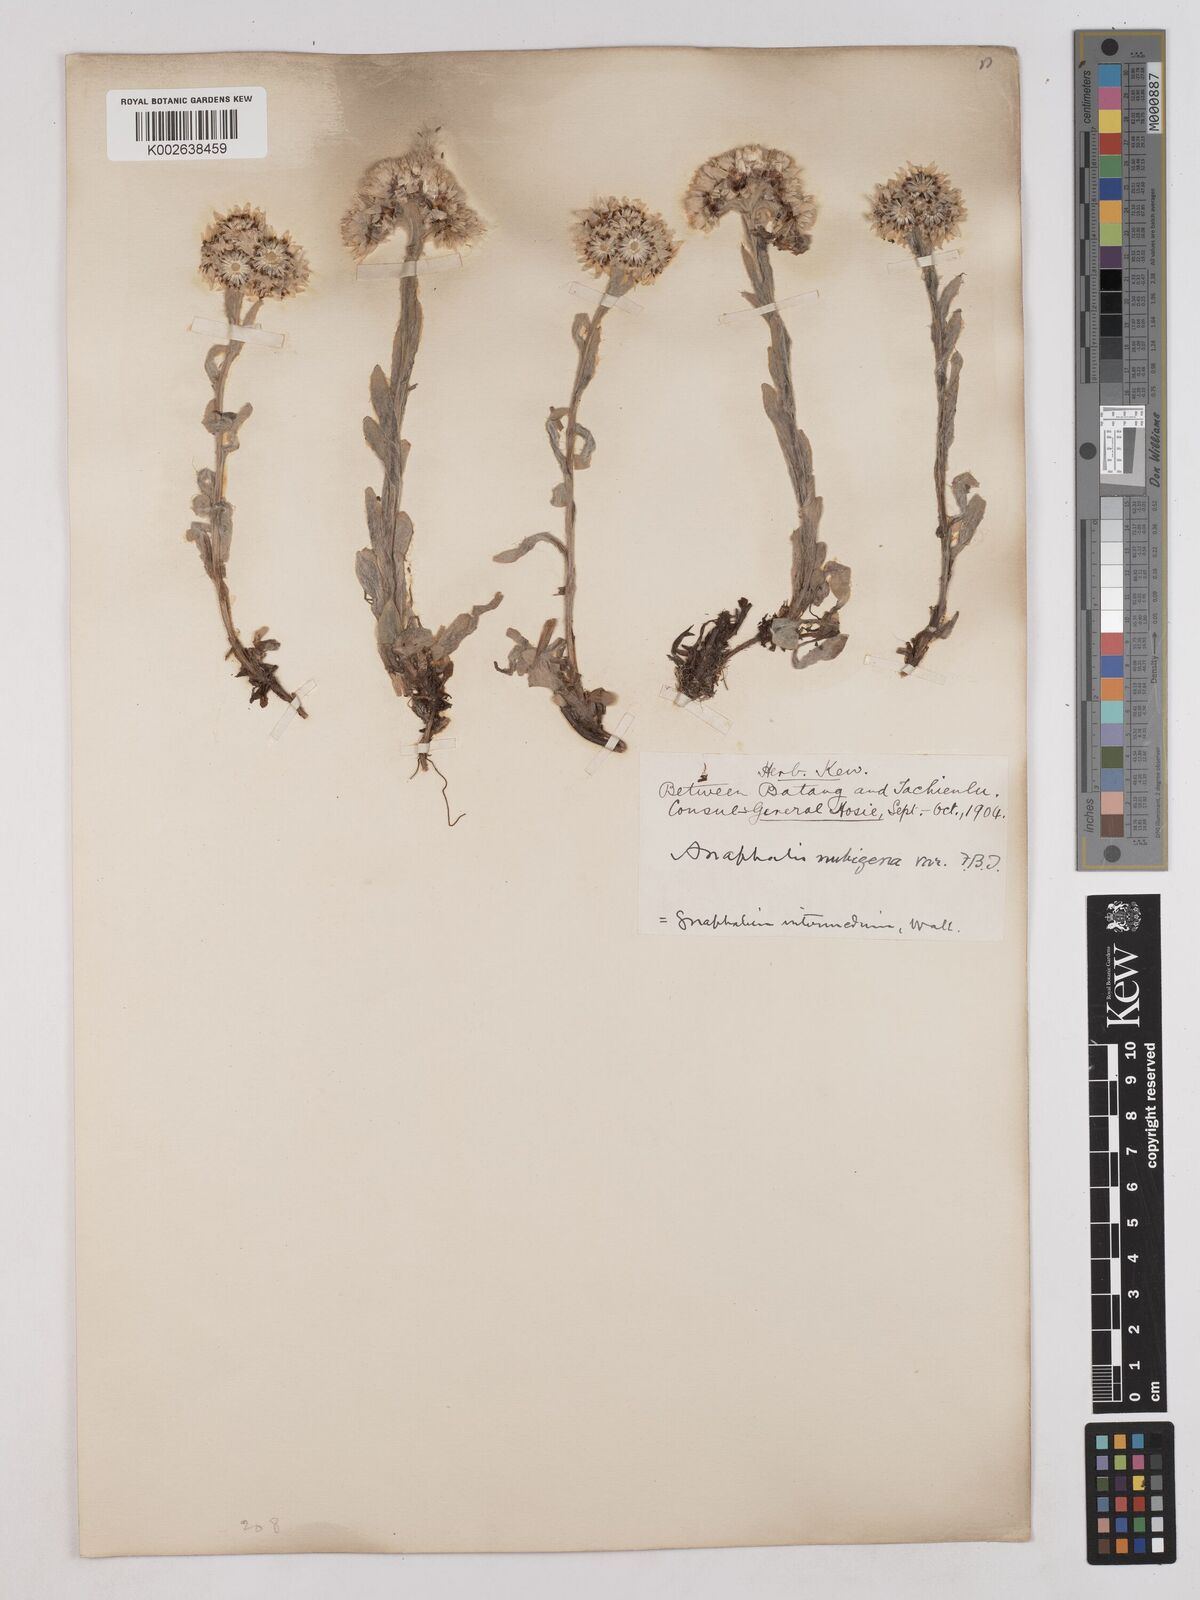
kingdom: Plantae
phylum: Tracheophyta
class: Magnoliopsida
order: Asterales
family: Asteraceae
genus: Anaphalis
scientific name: Anaphalis xylorhiza
